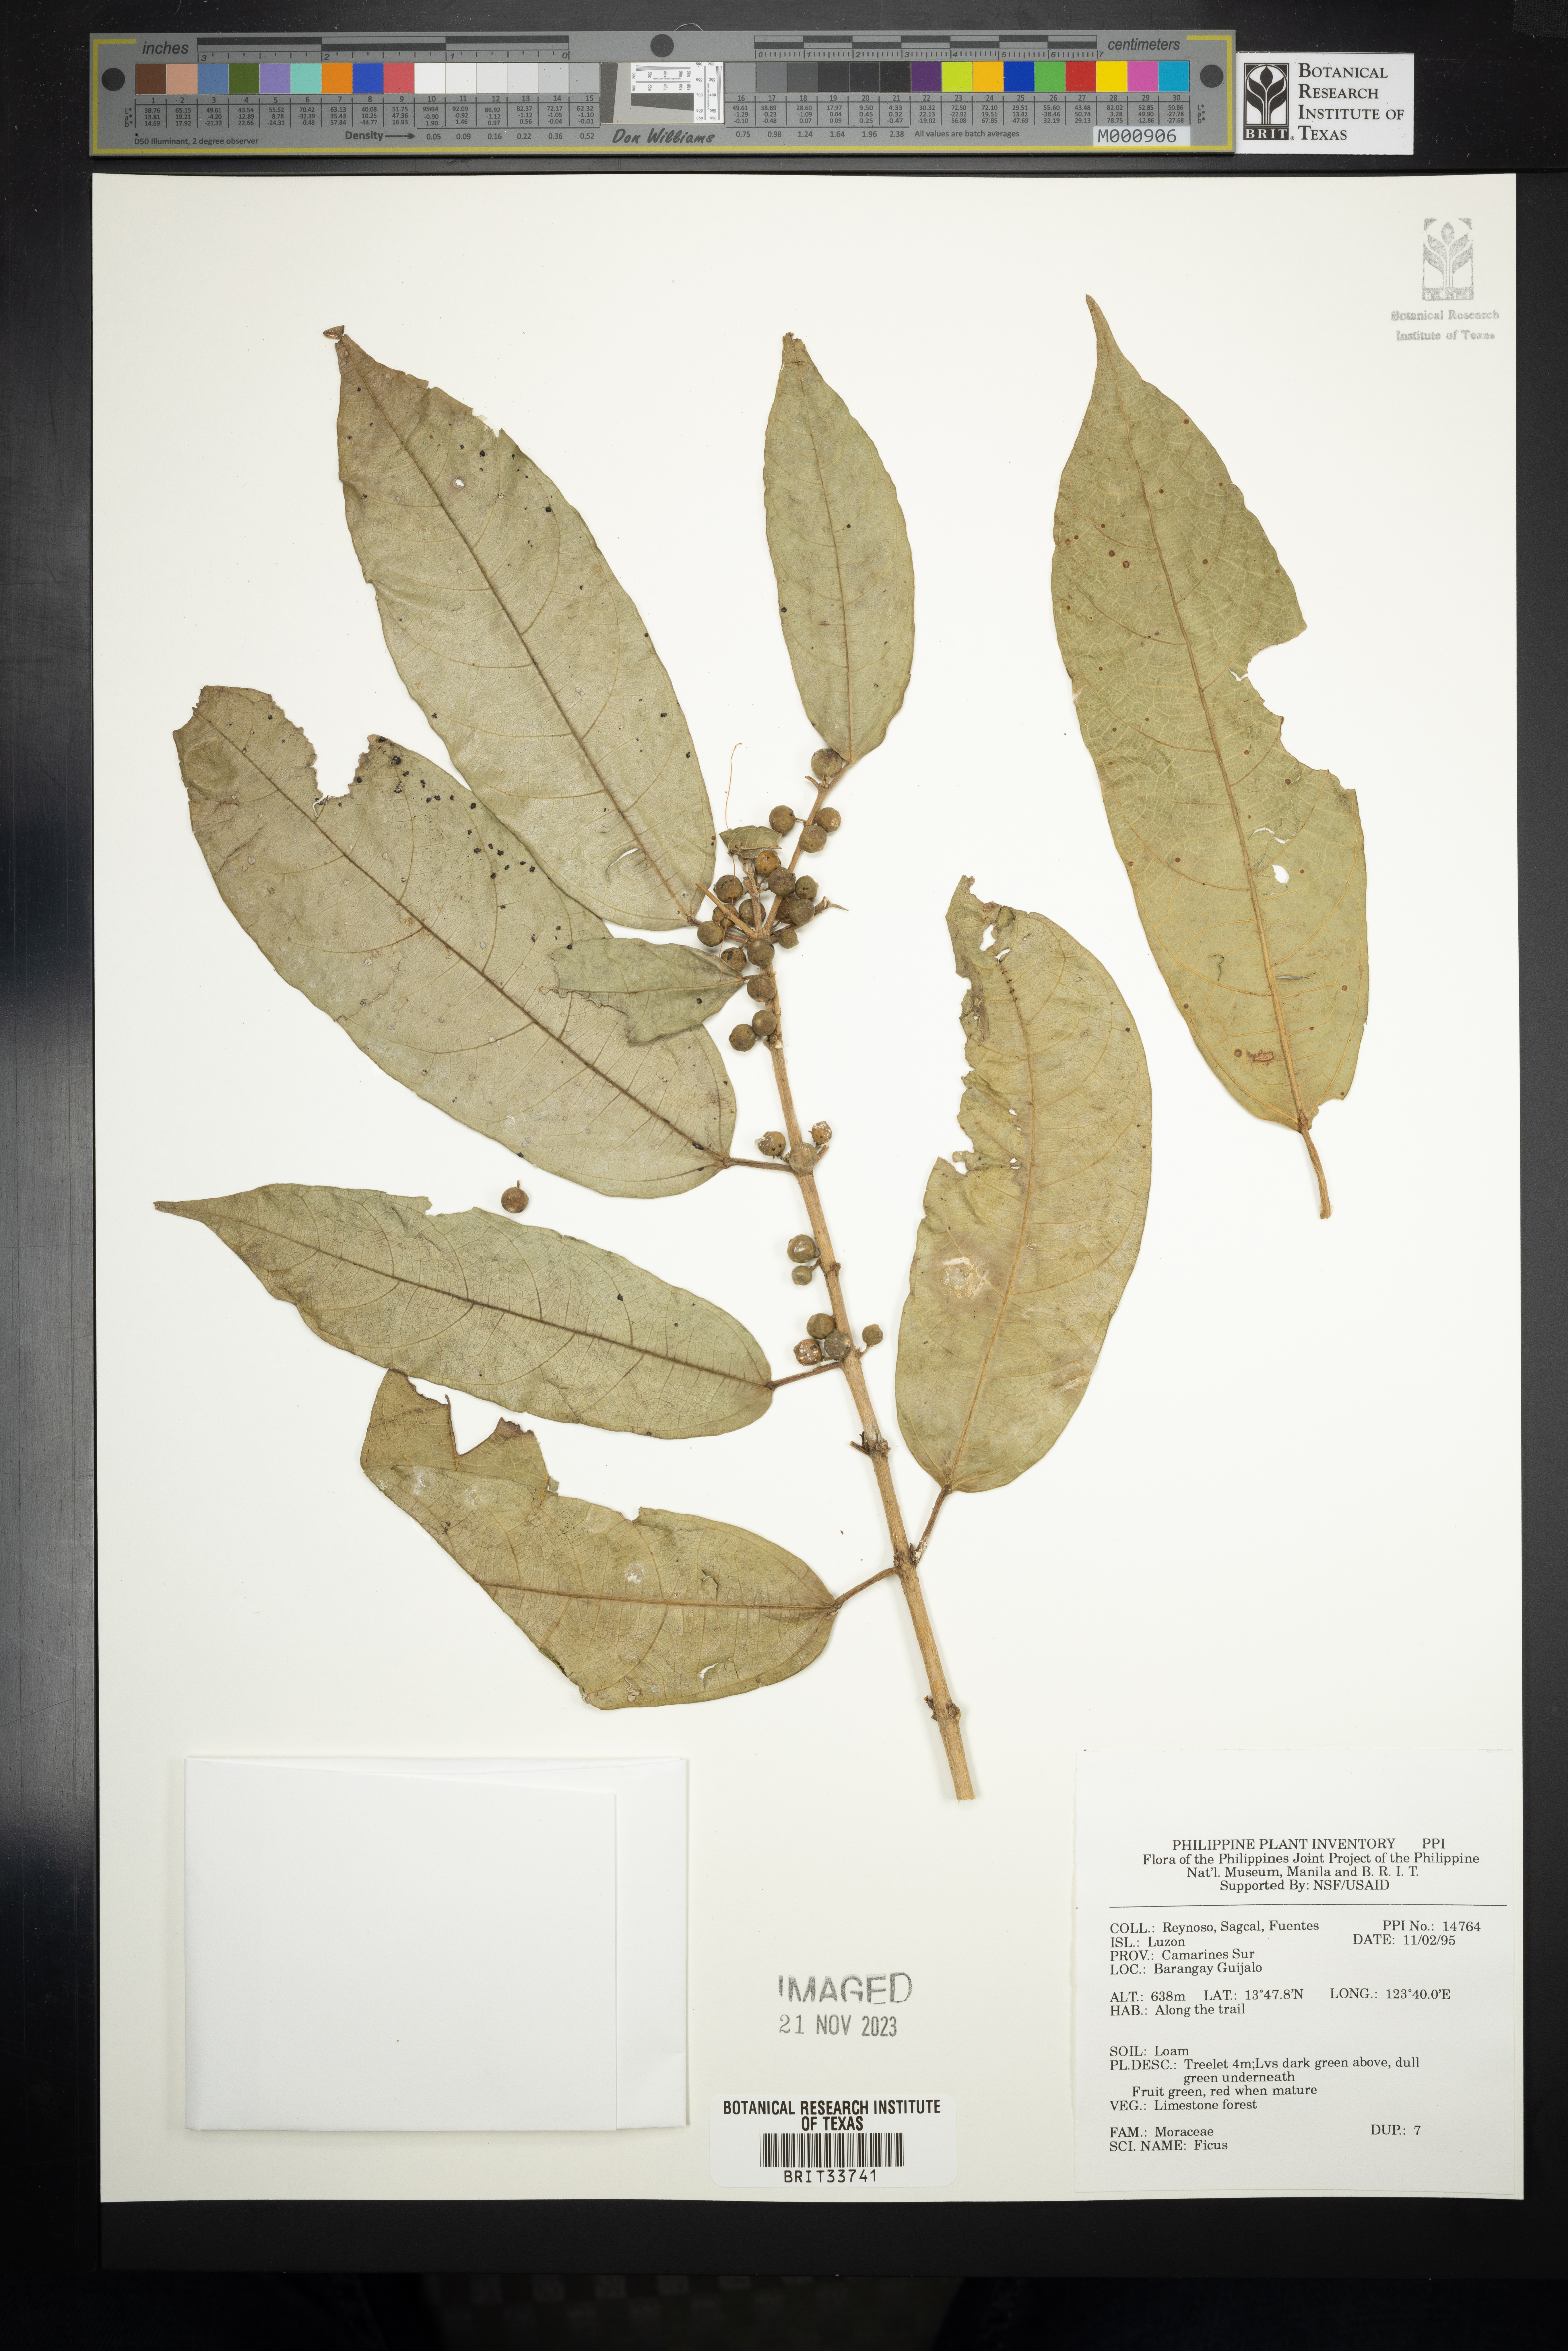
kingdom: Plantae
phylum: Tracheophyta
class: Magnoliopsida
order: Rosales
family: Moraceae
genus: Ficus
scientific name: Ficus
